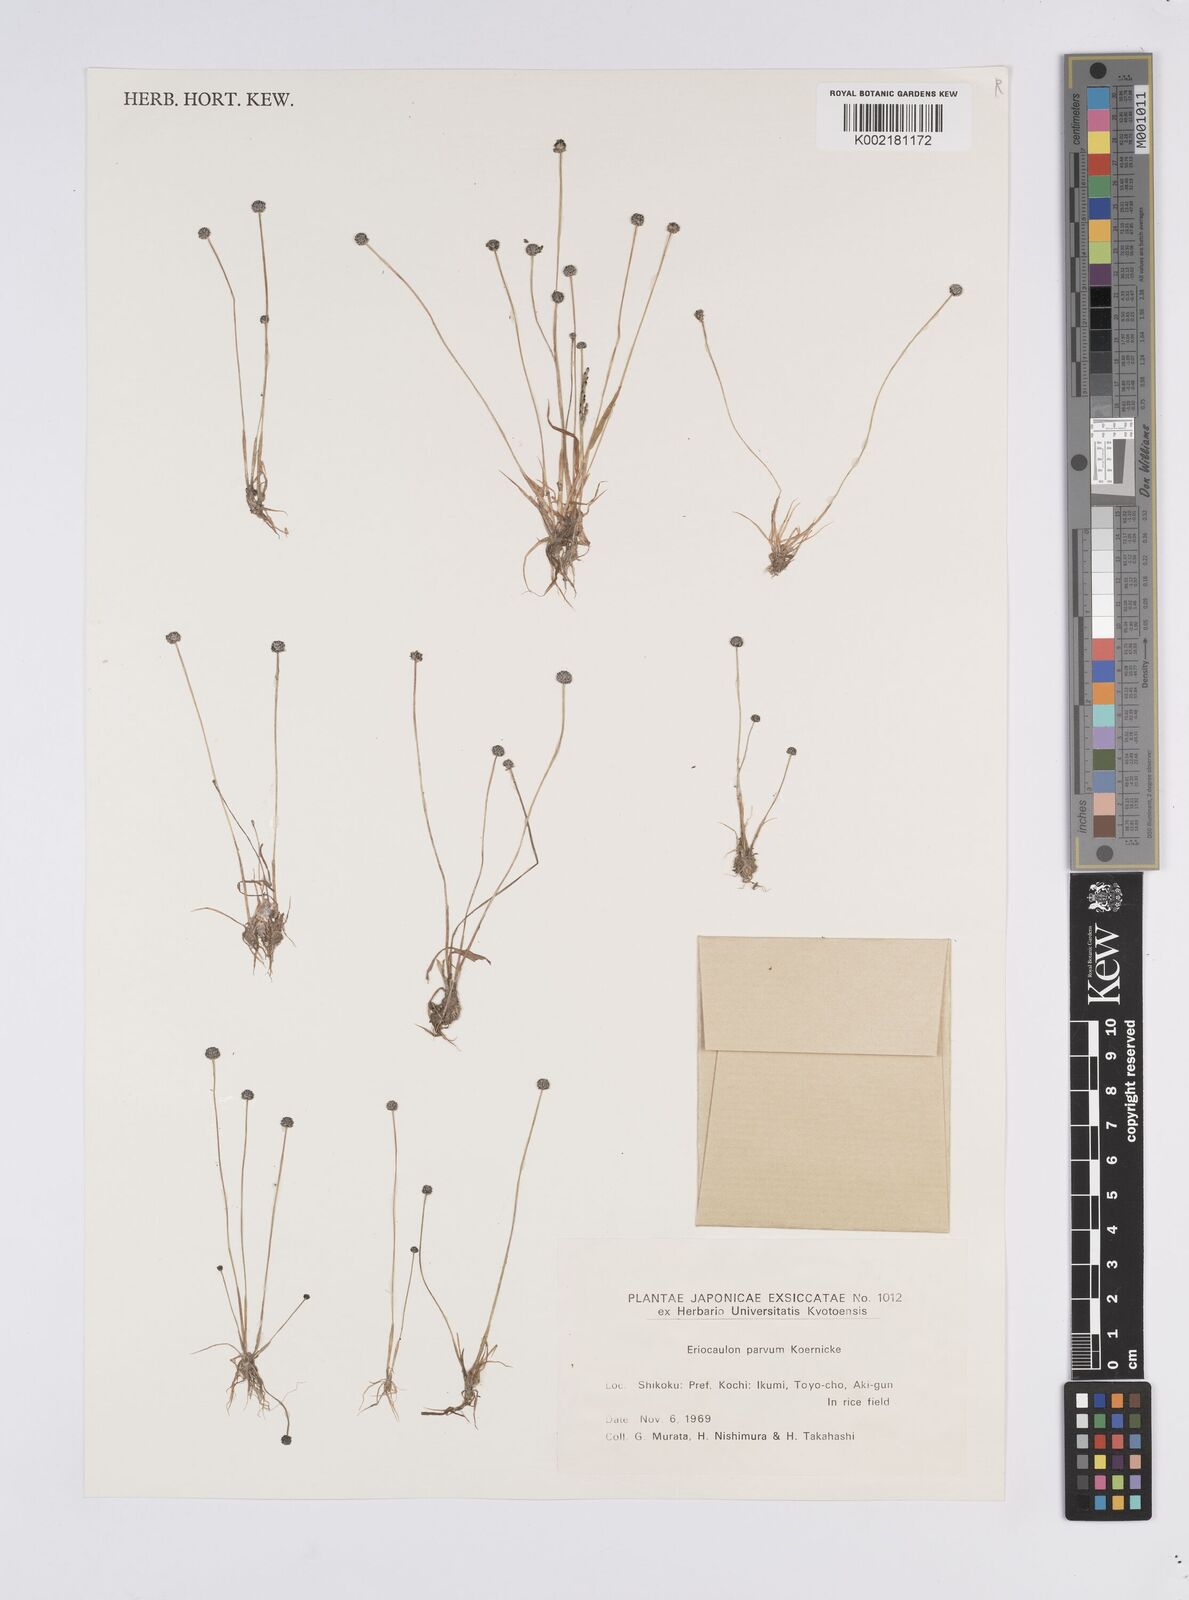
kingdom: Plantae
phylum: Tracheophyta
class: Liliopsida
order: Poales
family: Eriocaulaceae
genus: Eriocaulon
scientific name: Eriocaulon parvum
